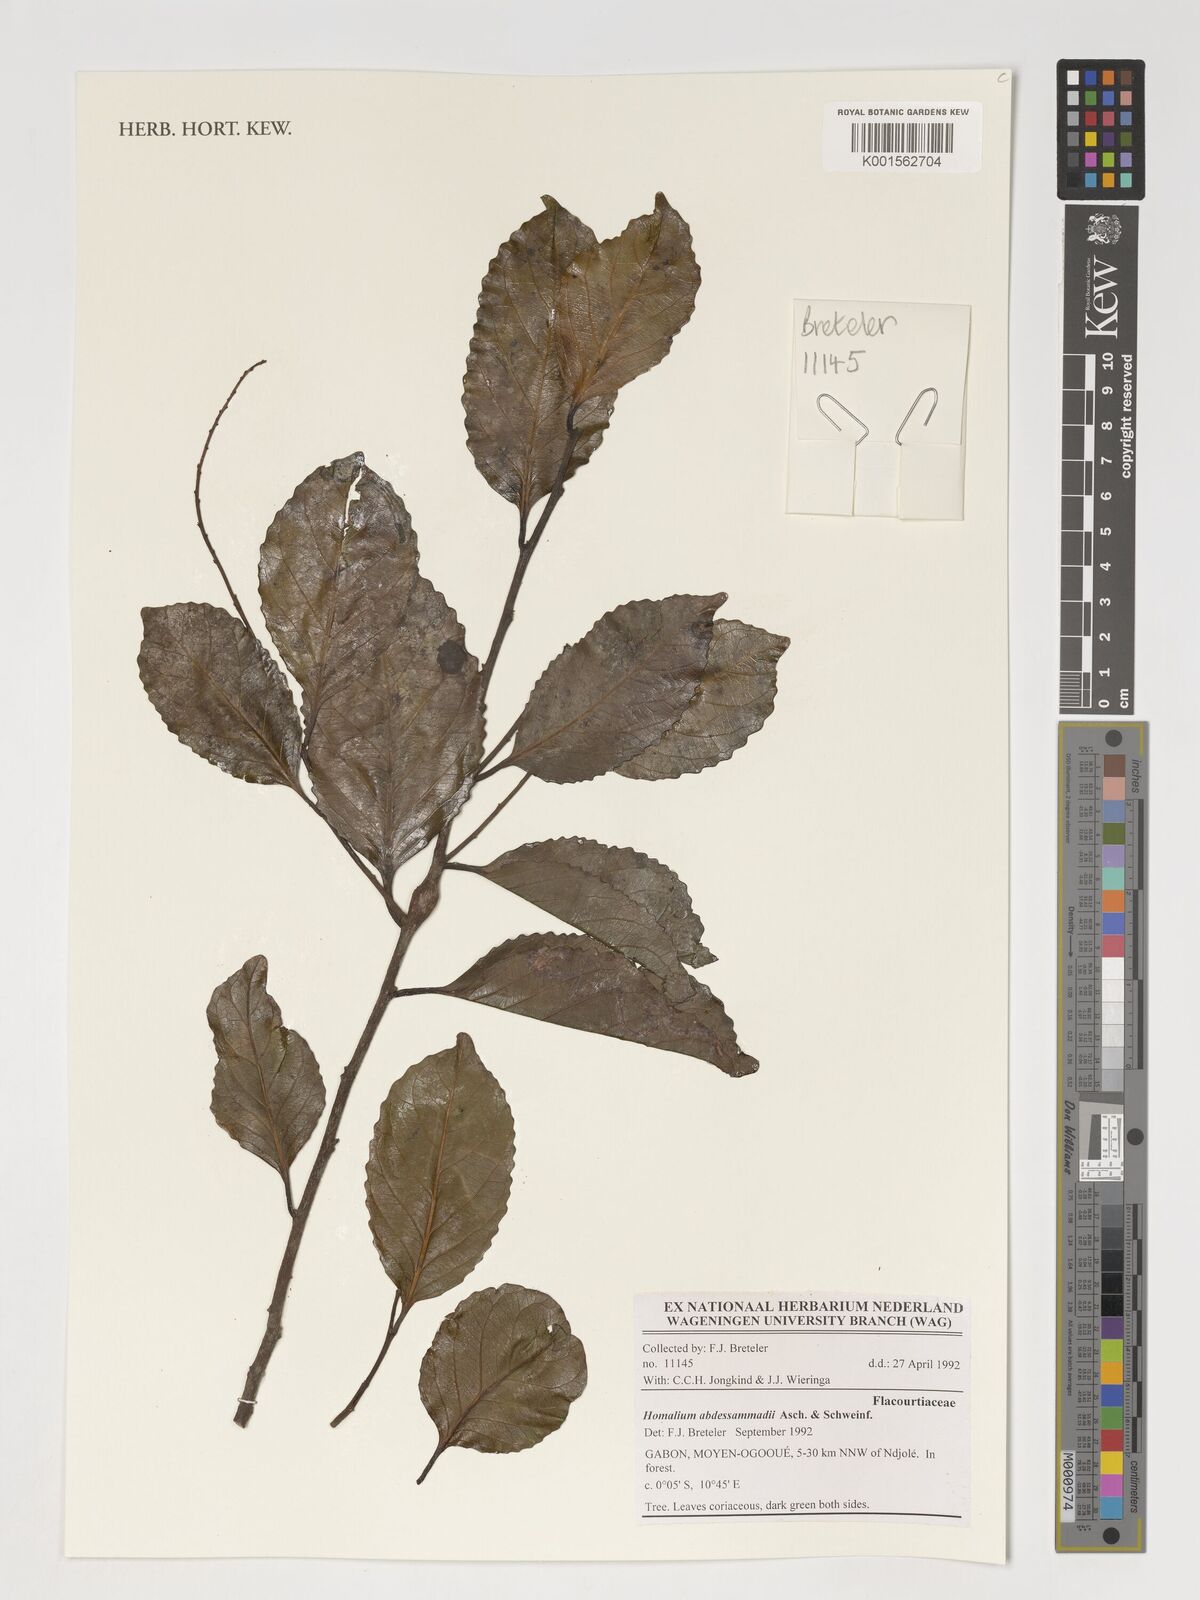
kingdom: Plantae
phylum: Tracheophyta
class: Magnoliopsida
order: Malpighiales
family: Salicaceae
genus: Homalium
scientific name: Homalium abdessammadii
